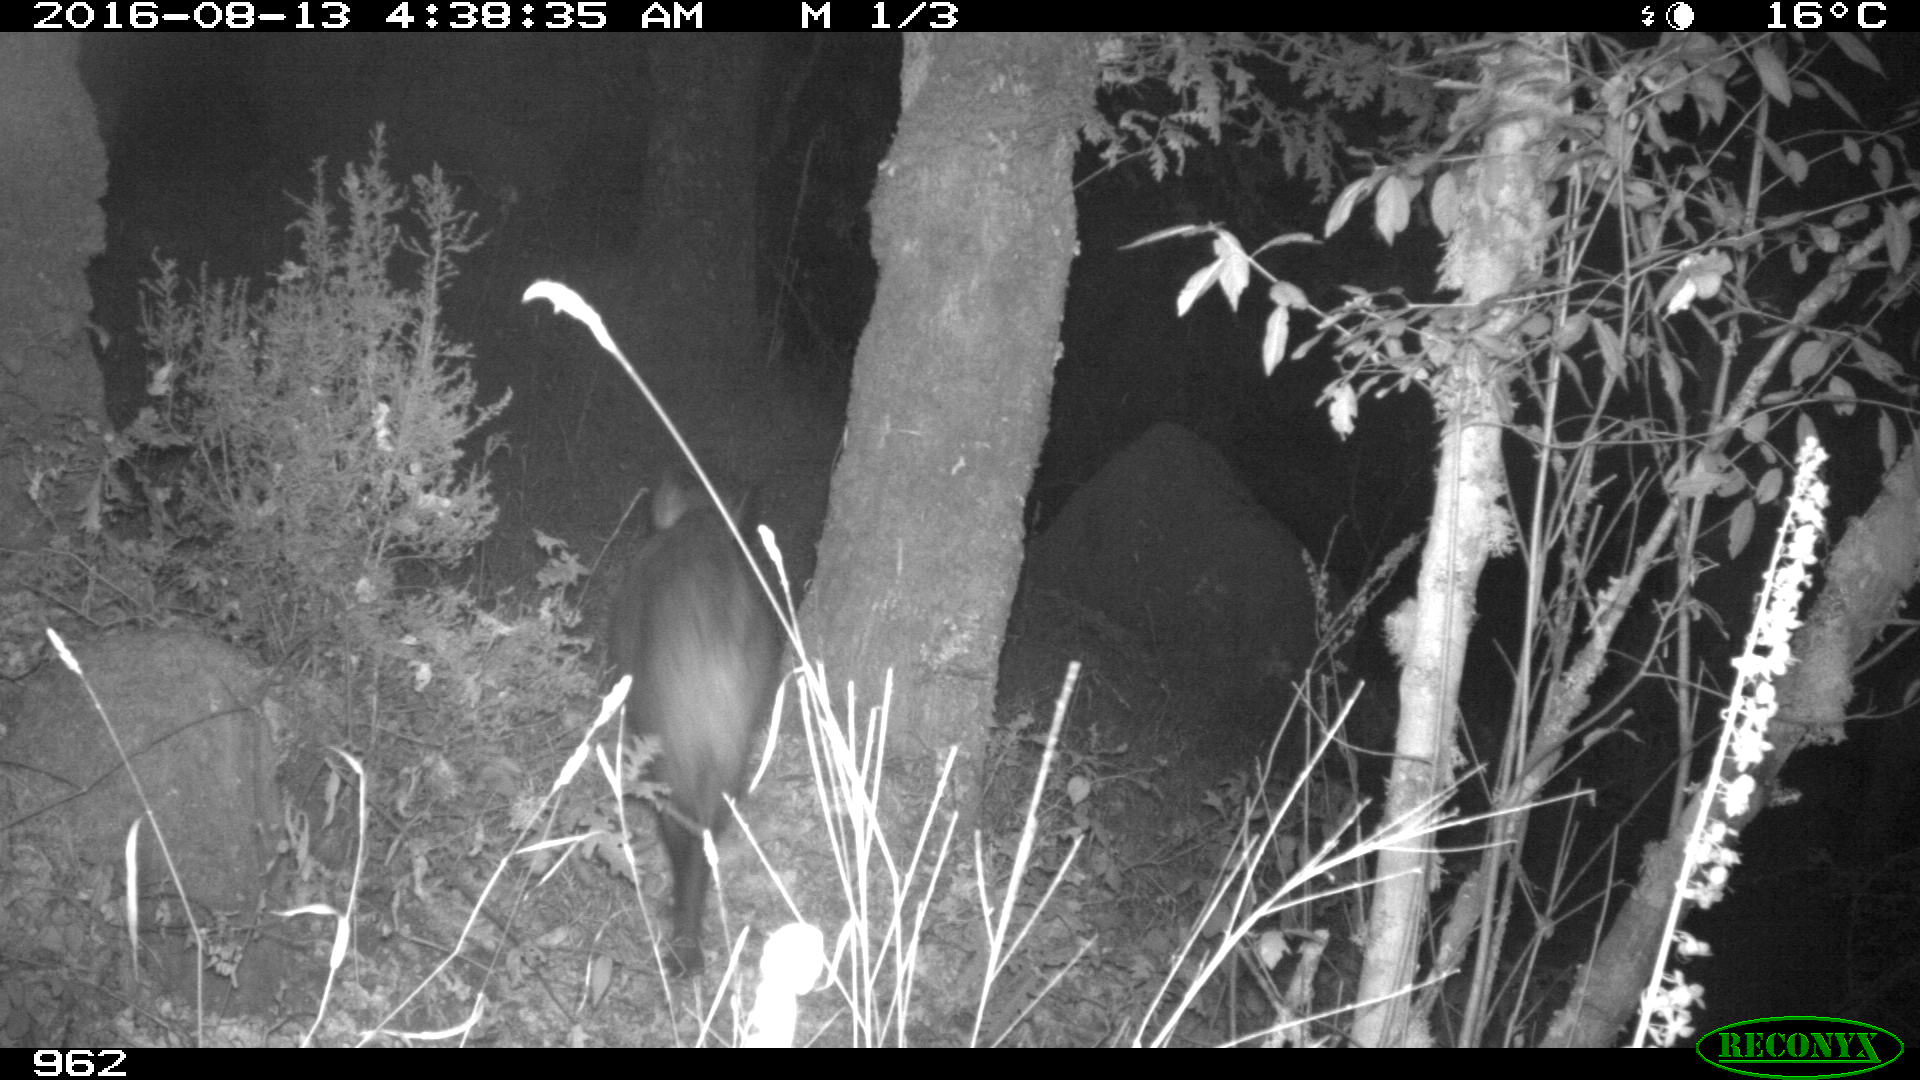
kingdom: Animalia
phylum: Chordata
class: Mammalia
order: Artiodactyla
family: Suidae
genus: Sus
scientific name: Sus scrofa
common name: Wild boar
